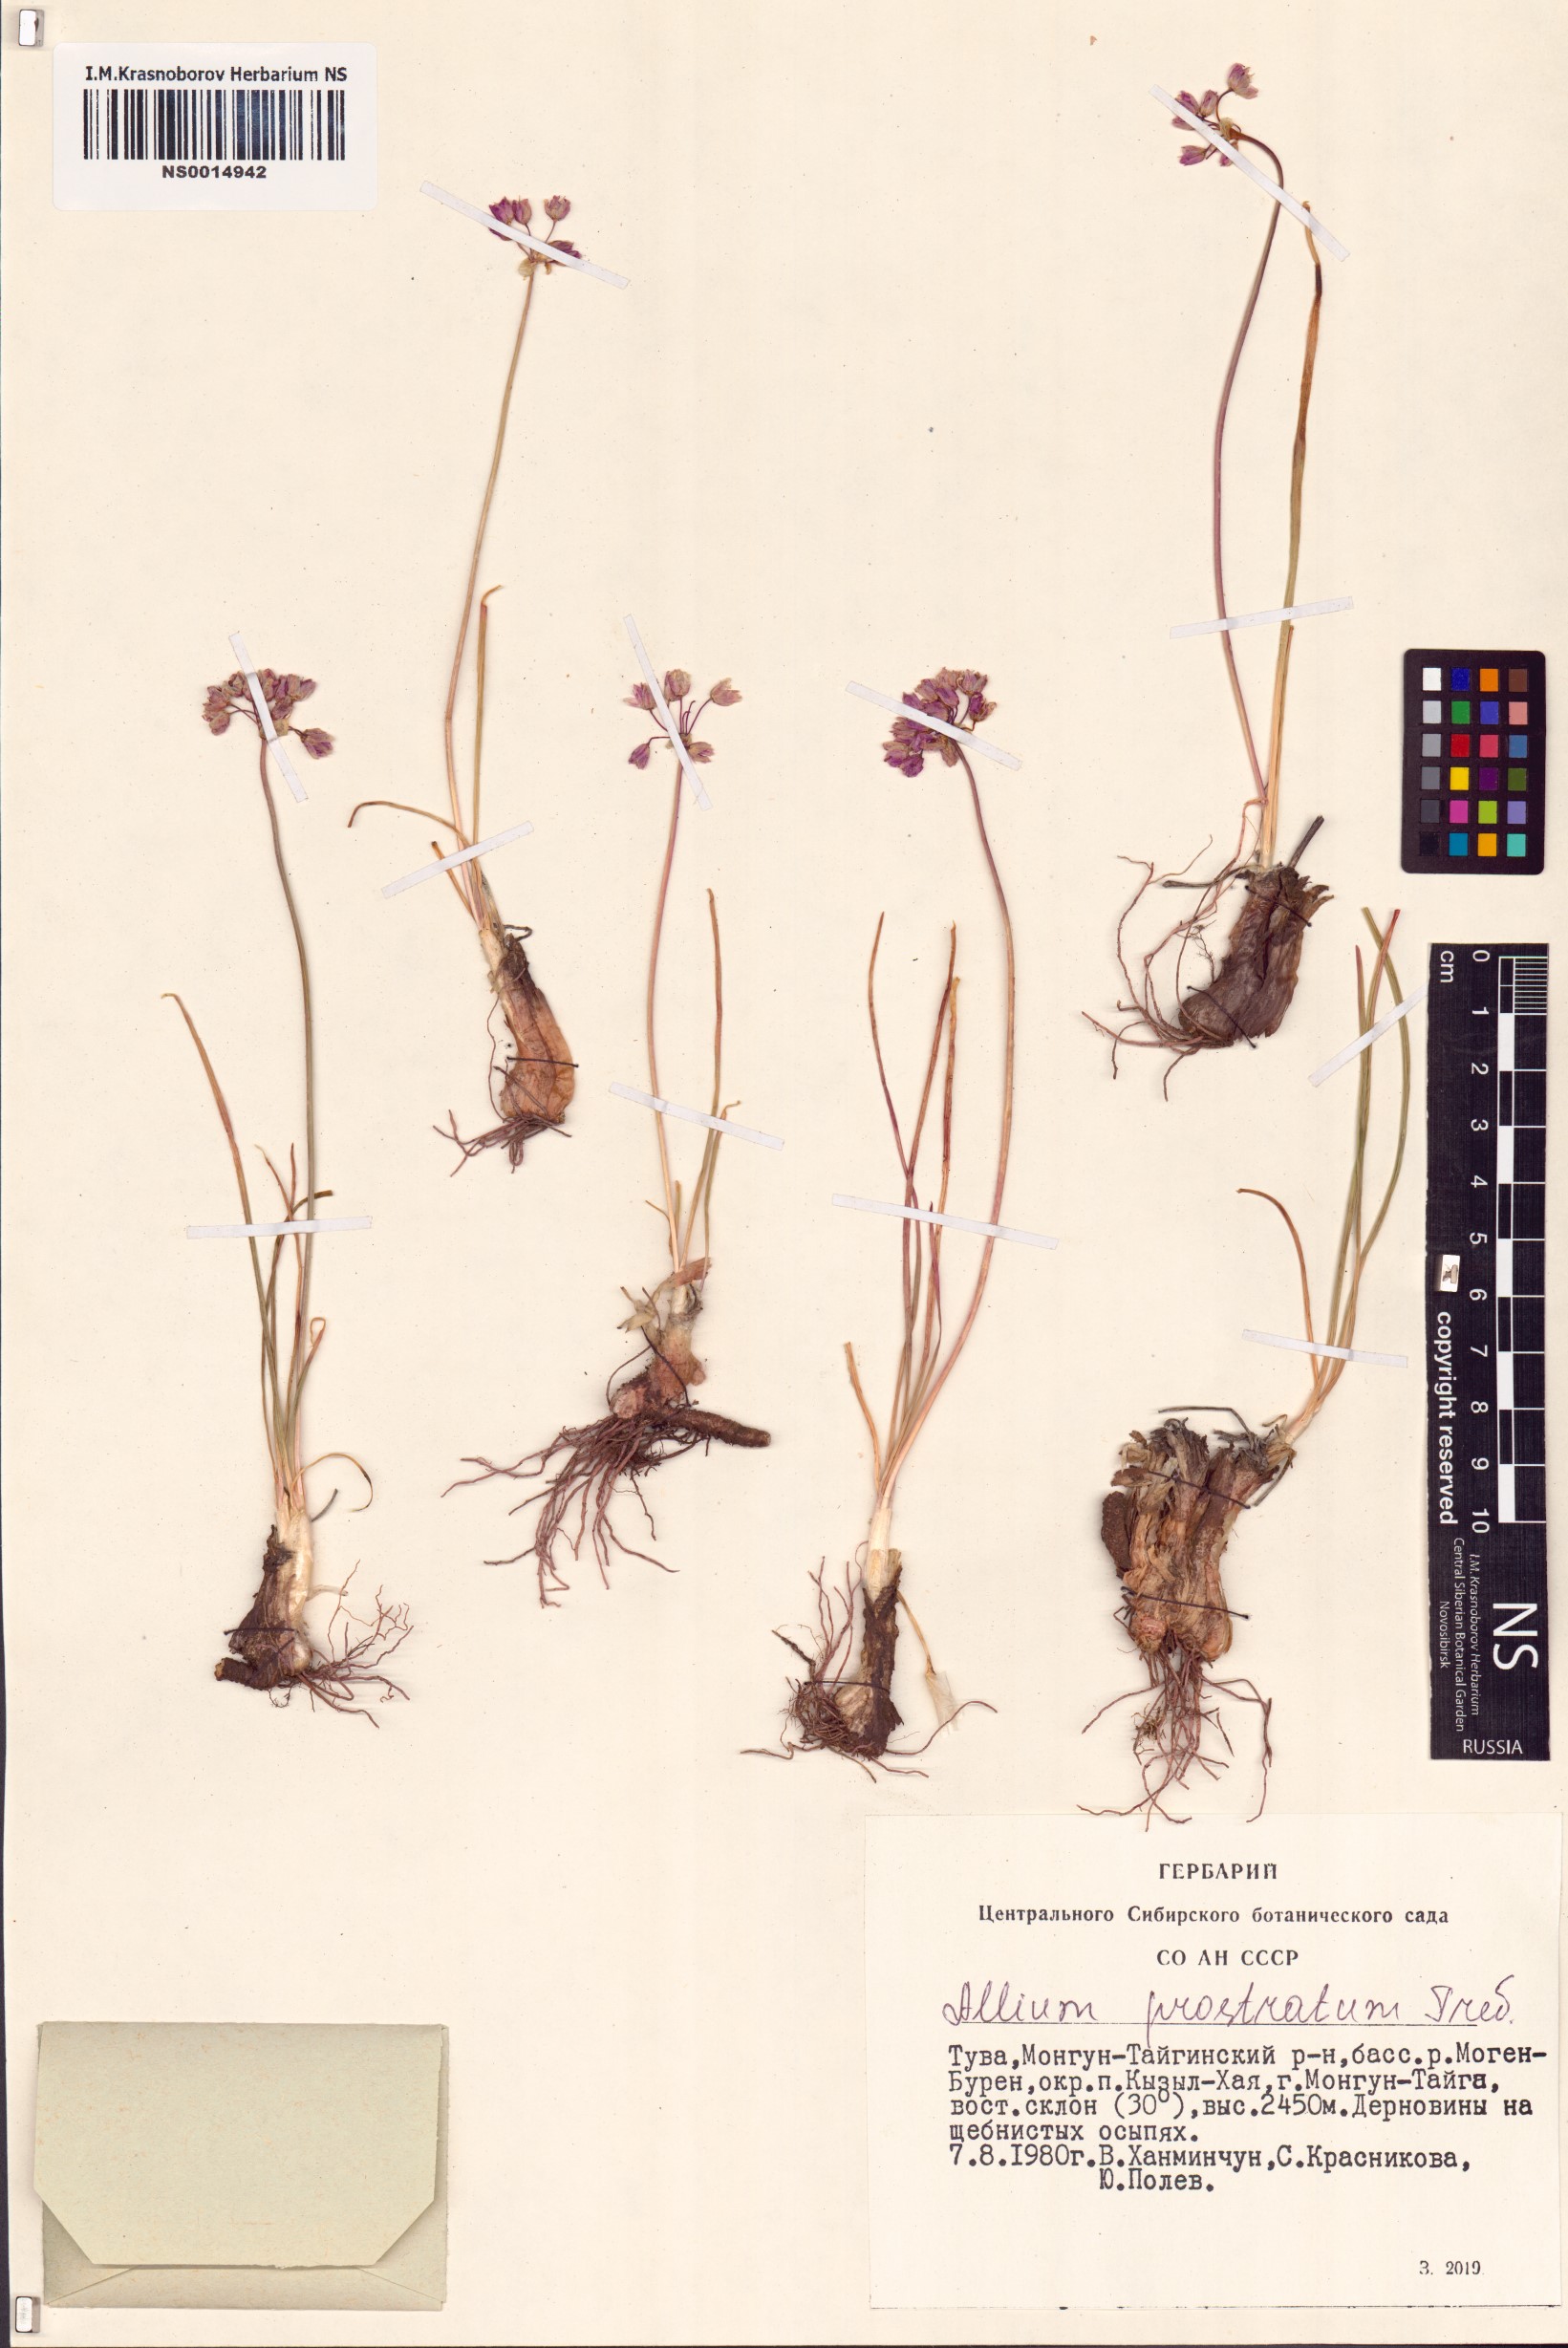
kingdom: Plantae
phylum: Tracheophyta
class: Liliopsida
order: Asparagales
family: Amaryllidaceae
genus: Allium
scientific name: Allium prostratum
